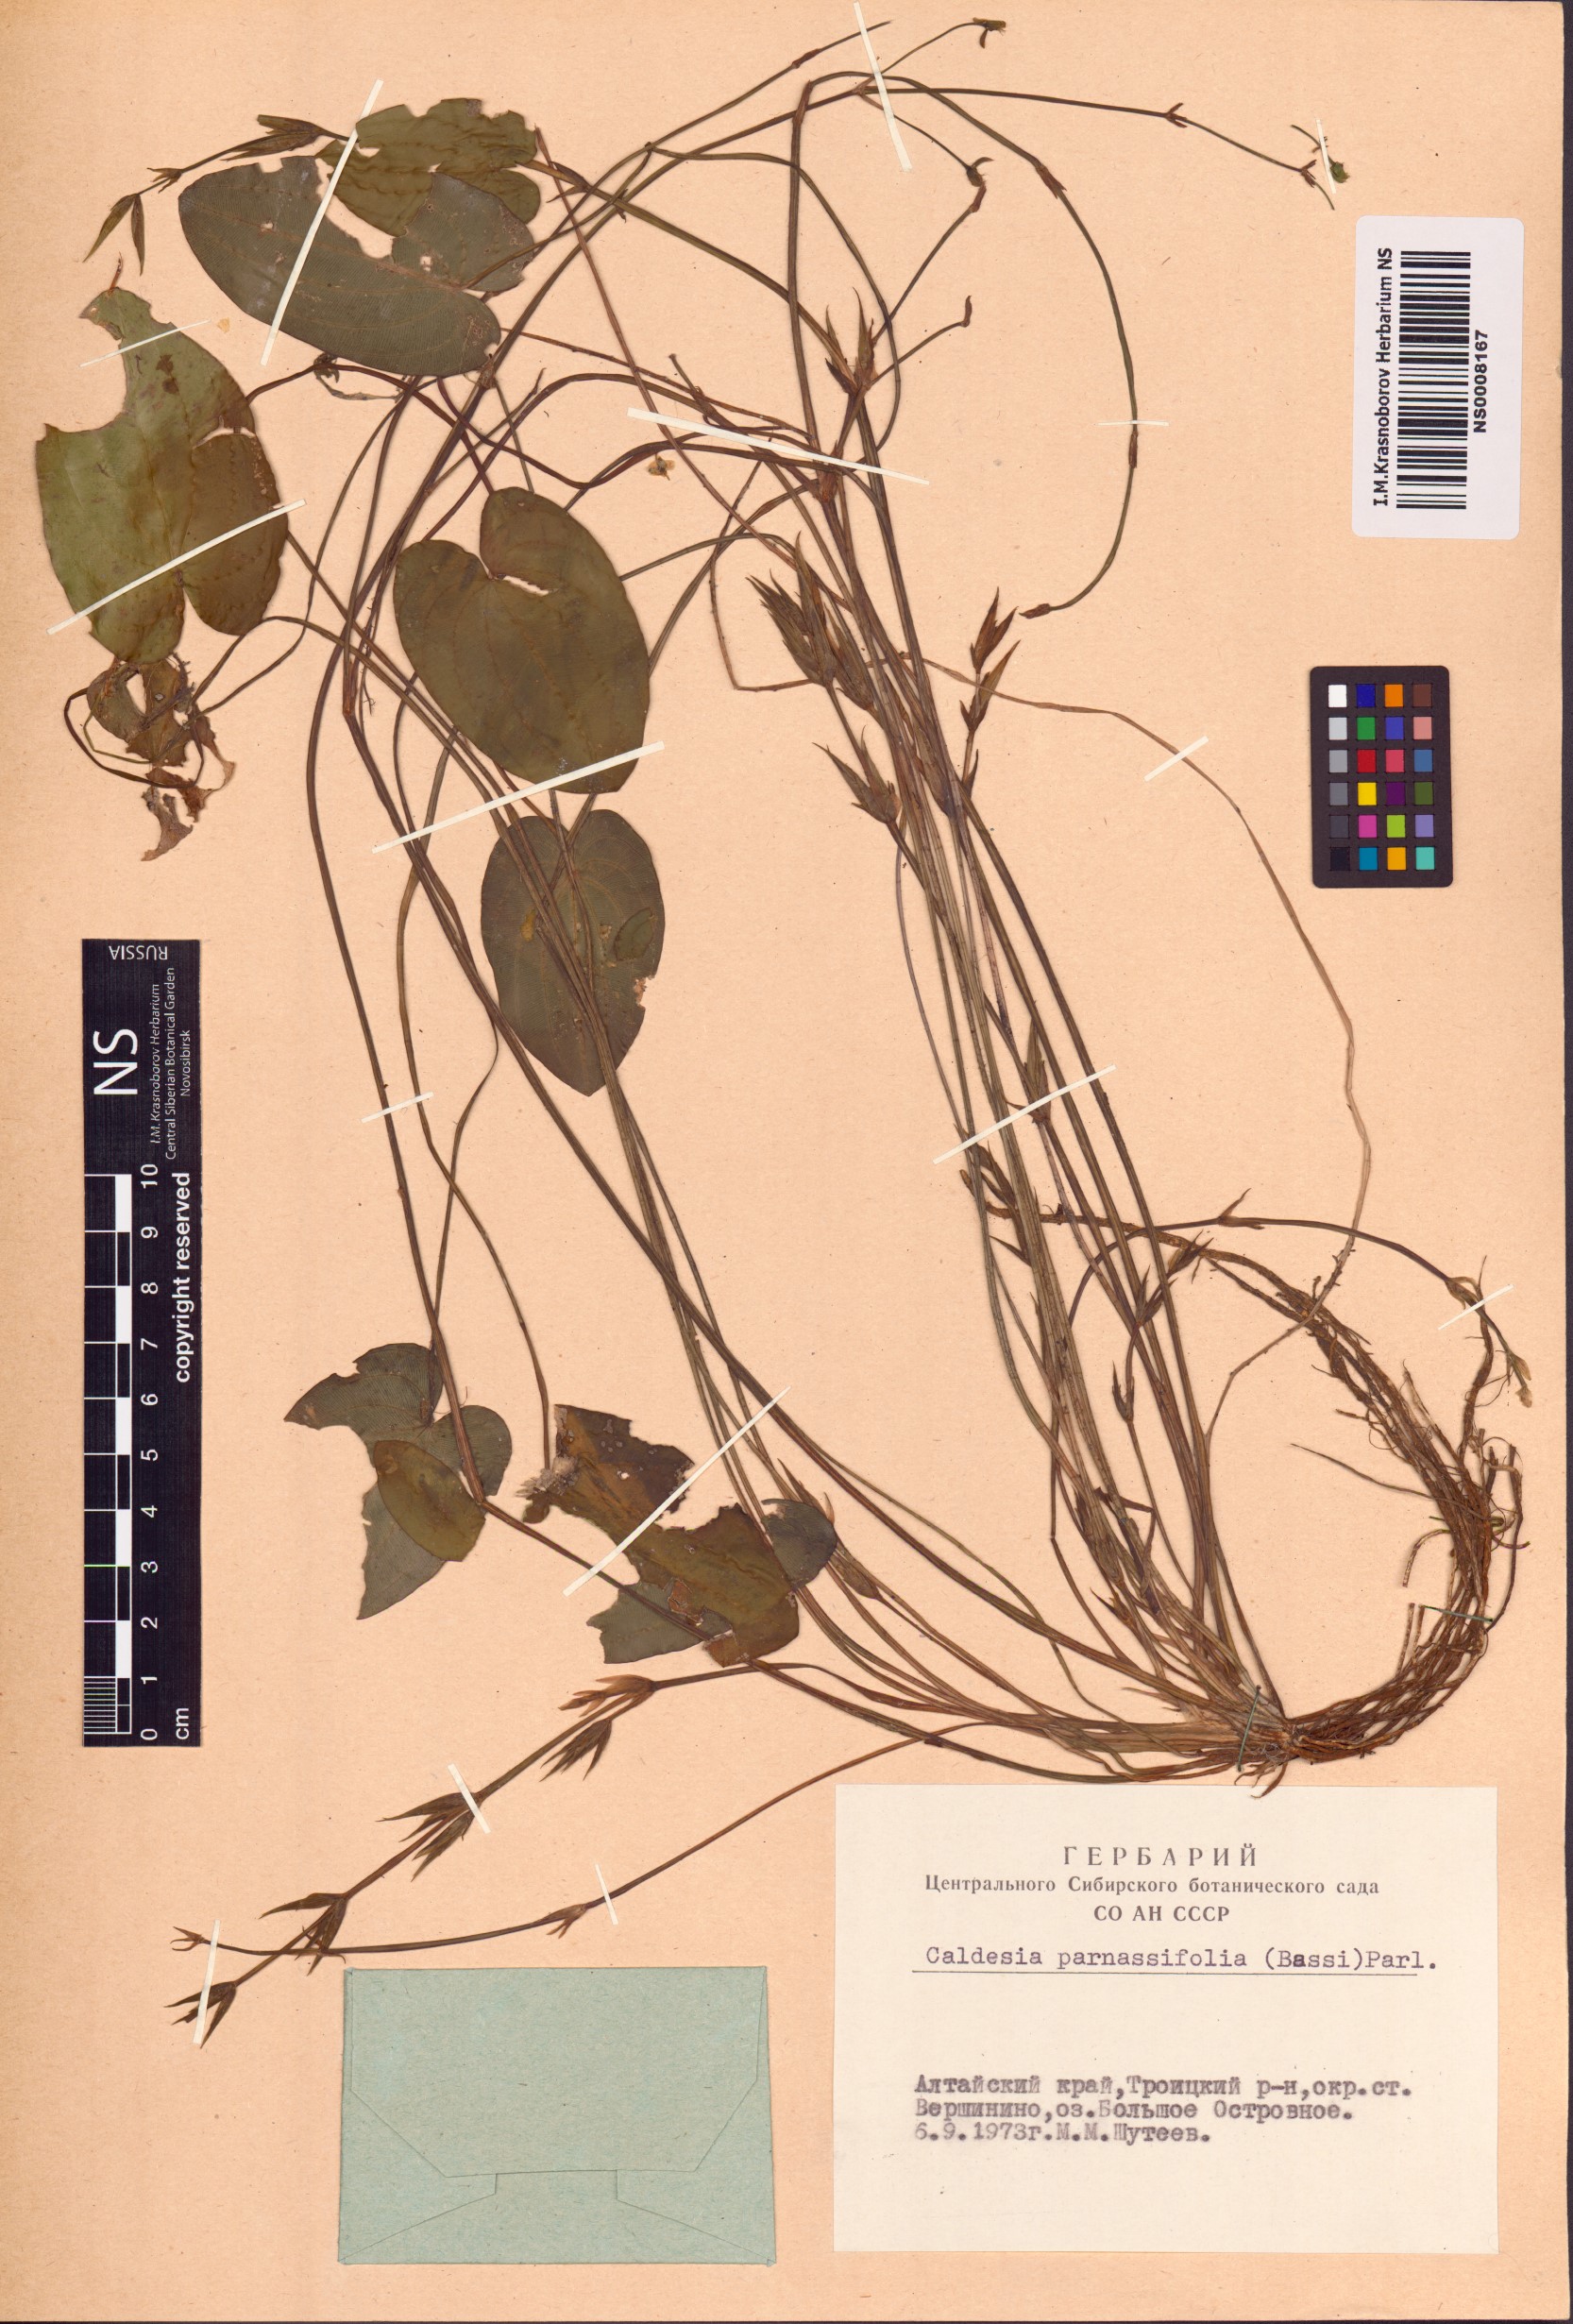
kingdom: Plantae
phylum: Tracheophyta
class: Liliopsida
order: Alismatales
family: Alismataceae
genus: Caldesia
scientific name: Caldesia parnassifolia
